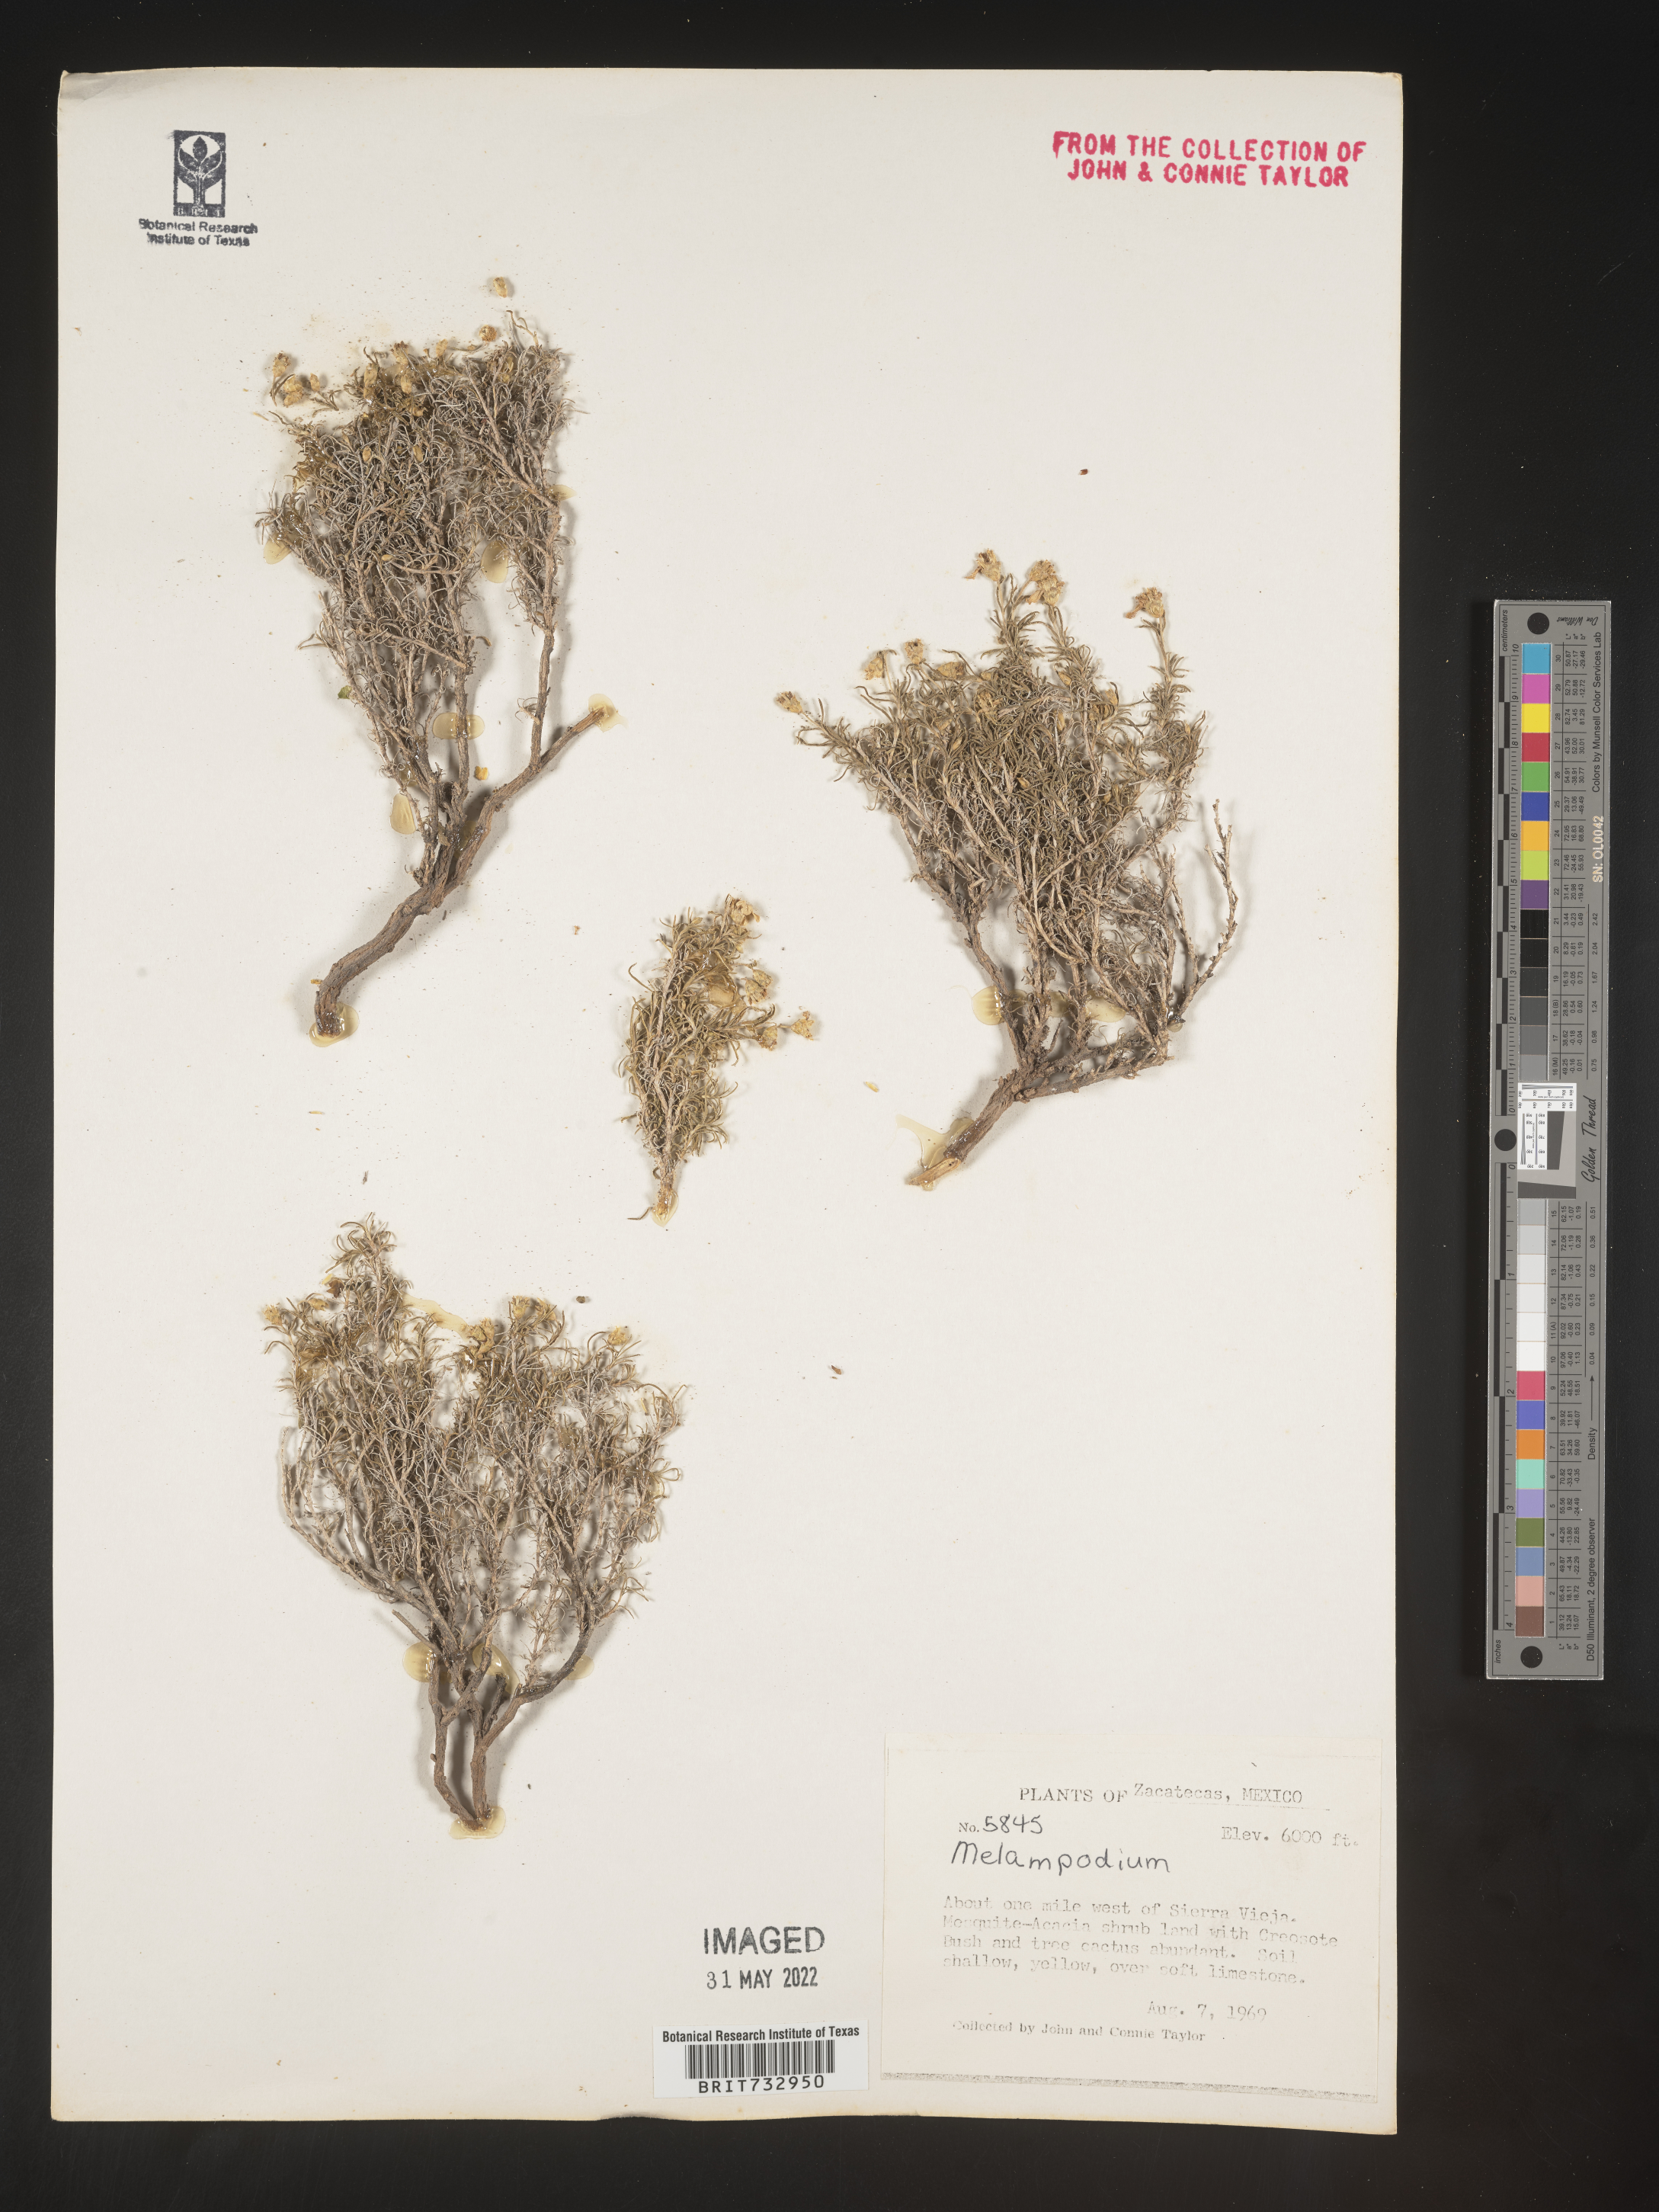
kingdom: Plantae
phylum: Tracheophyta
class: Magnoliopsida
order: Asterales
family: Asteraceae
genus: Melampodium
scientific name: Melampodium
